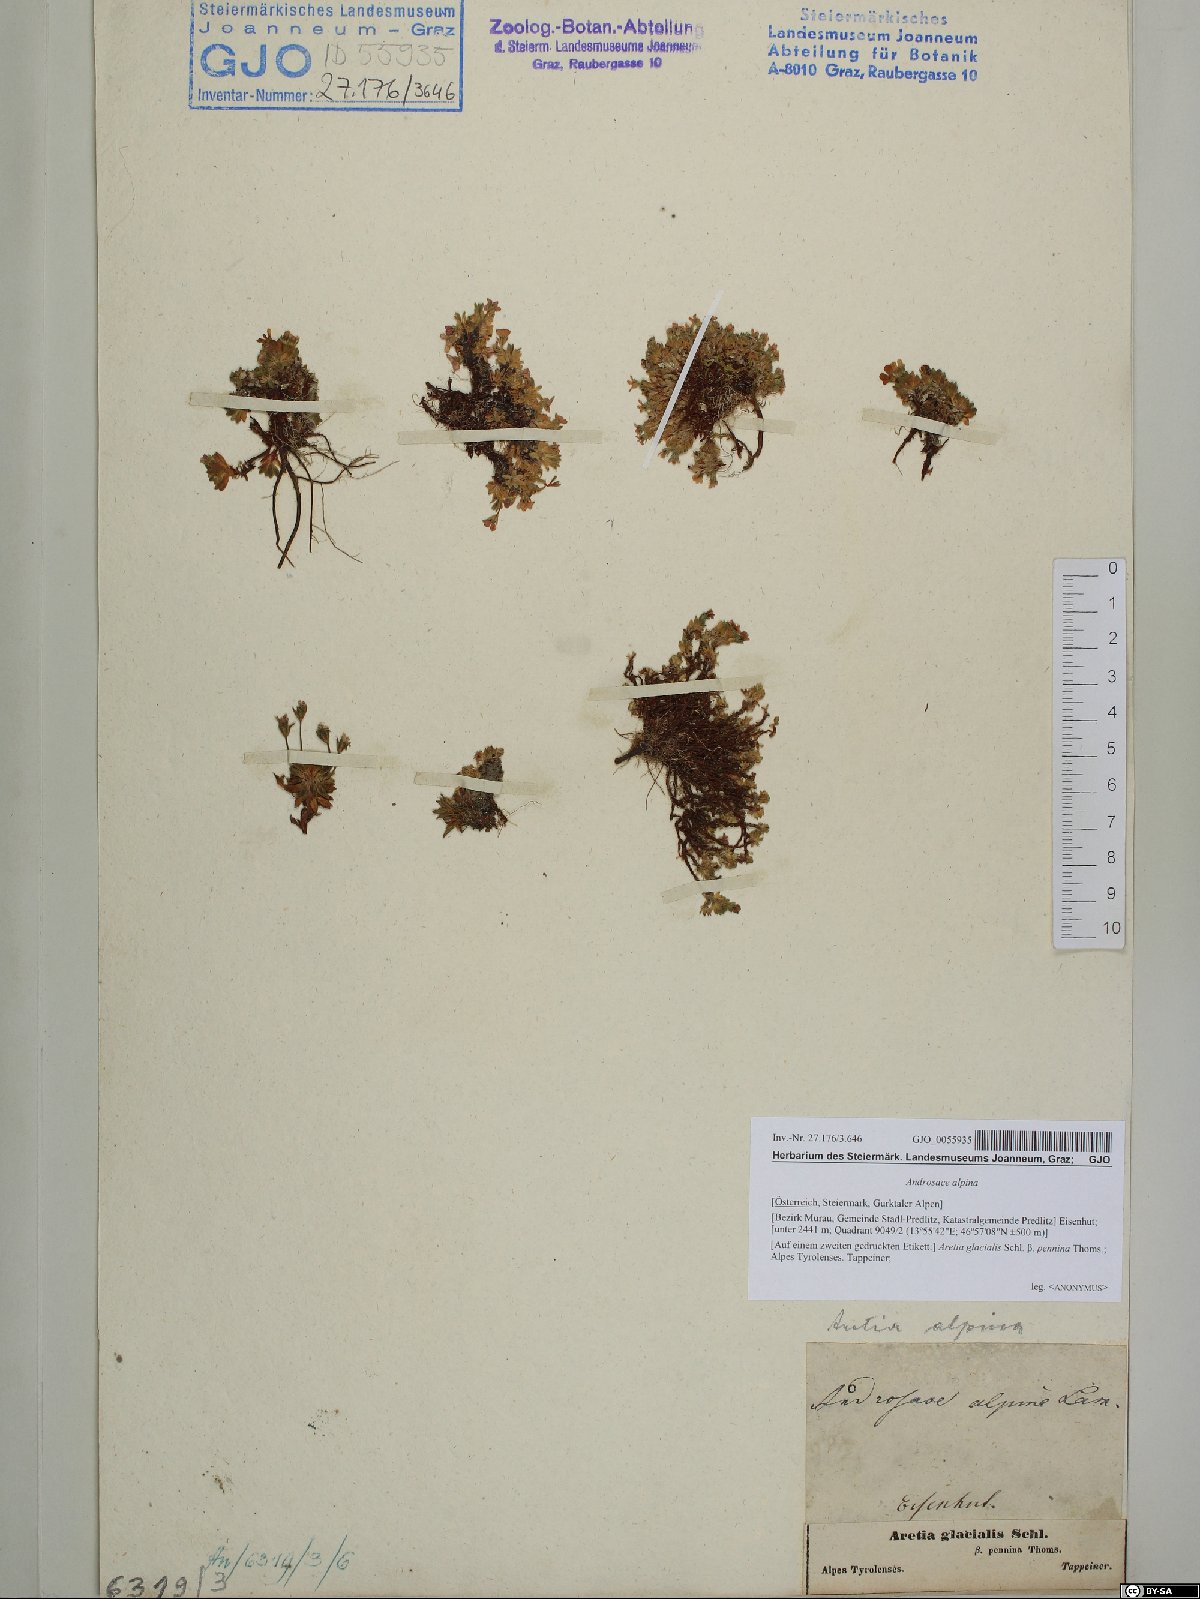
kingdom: Plantae
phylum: Tracheophyta
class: Magnoliopsida
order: Ericales
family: Primulaceae
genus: Androsace
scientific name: Androsace alpina
